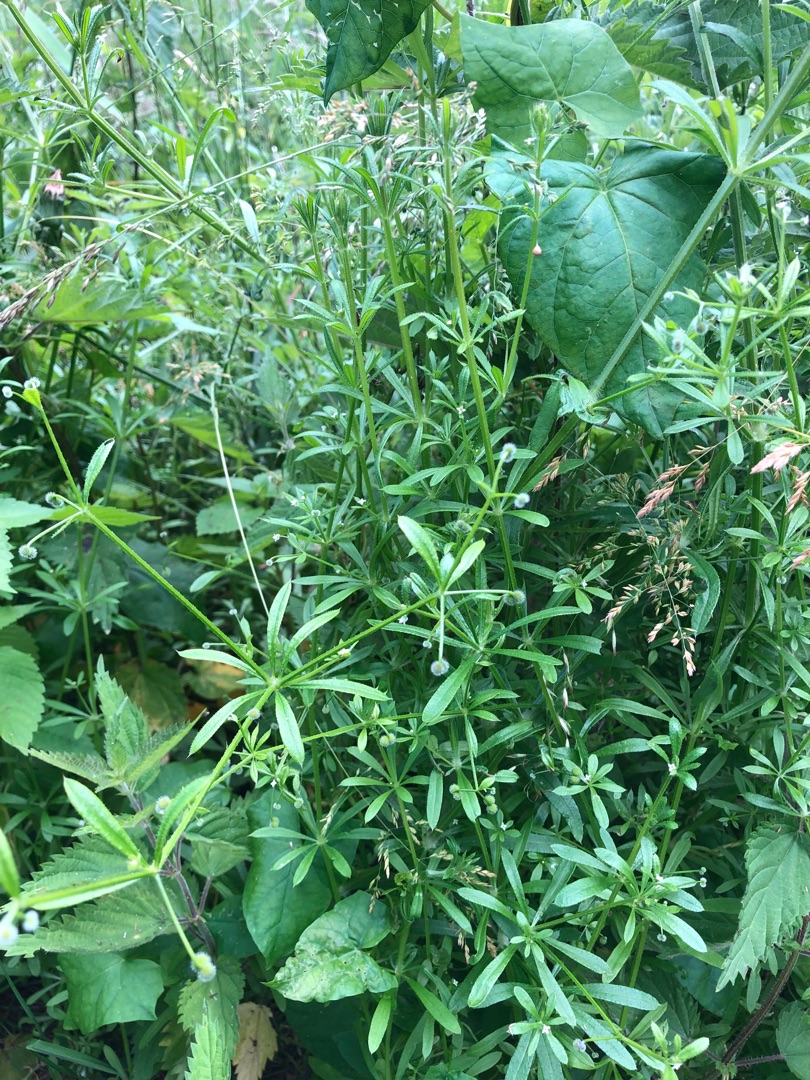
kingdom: Plantae
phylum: Tracheophyta
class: Magnoliopsida
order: Gentianales
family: Rubiaceae
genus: Galium
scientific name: Galium aparine
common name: Burre-snerre
